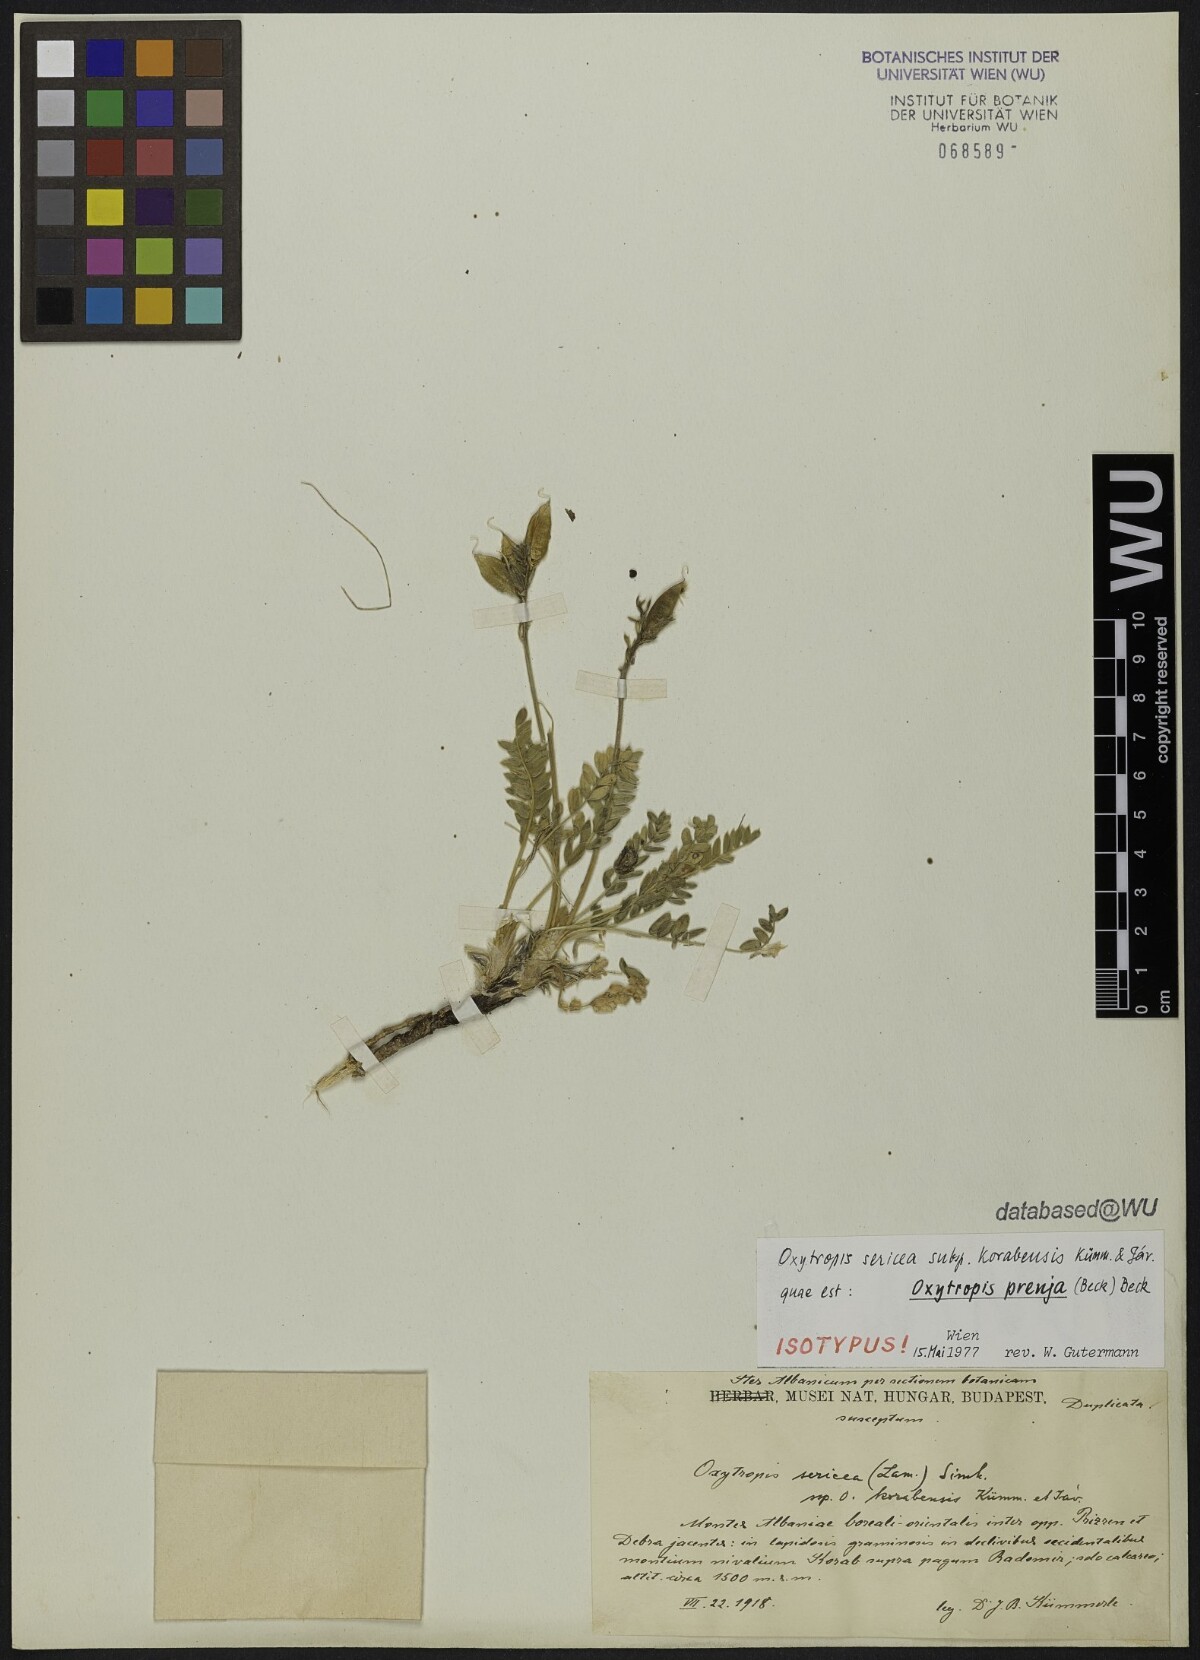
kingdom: Plantae
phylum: Tracheophyta
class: Magnoliopsida
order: Fabales
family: Fabaceae
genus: Oxytropis
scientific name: Oxytropis korabensis
